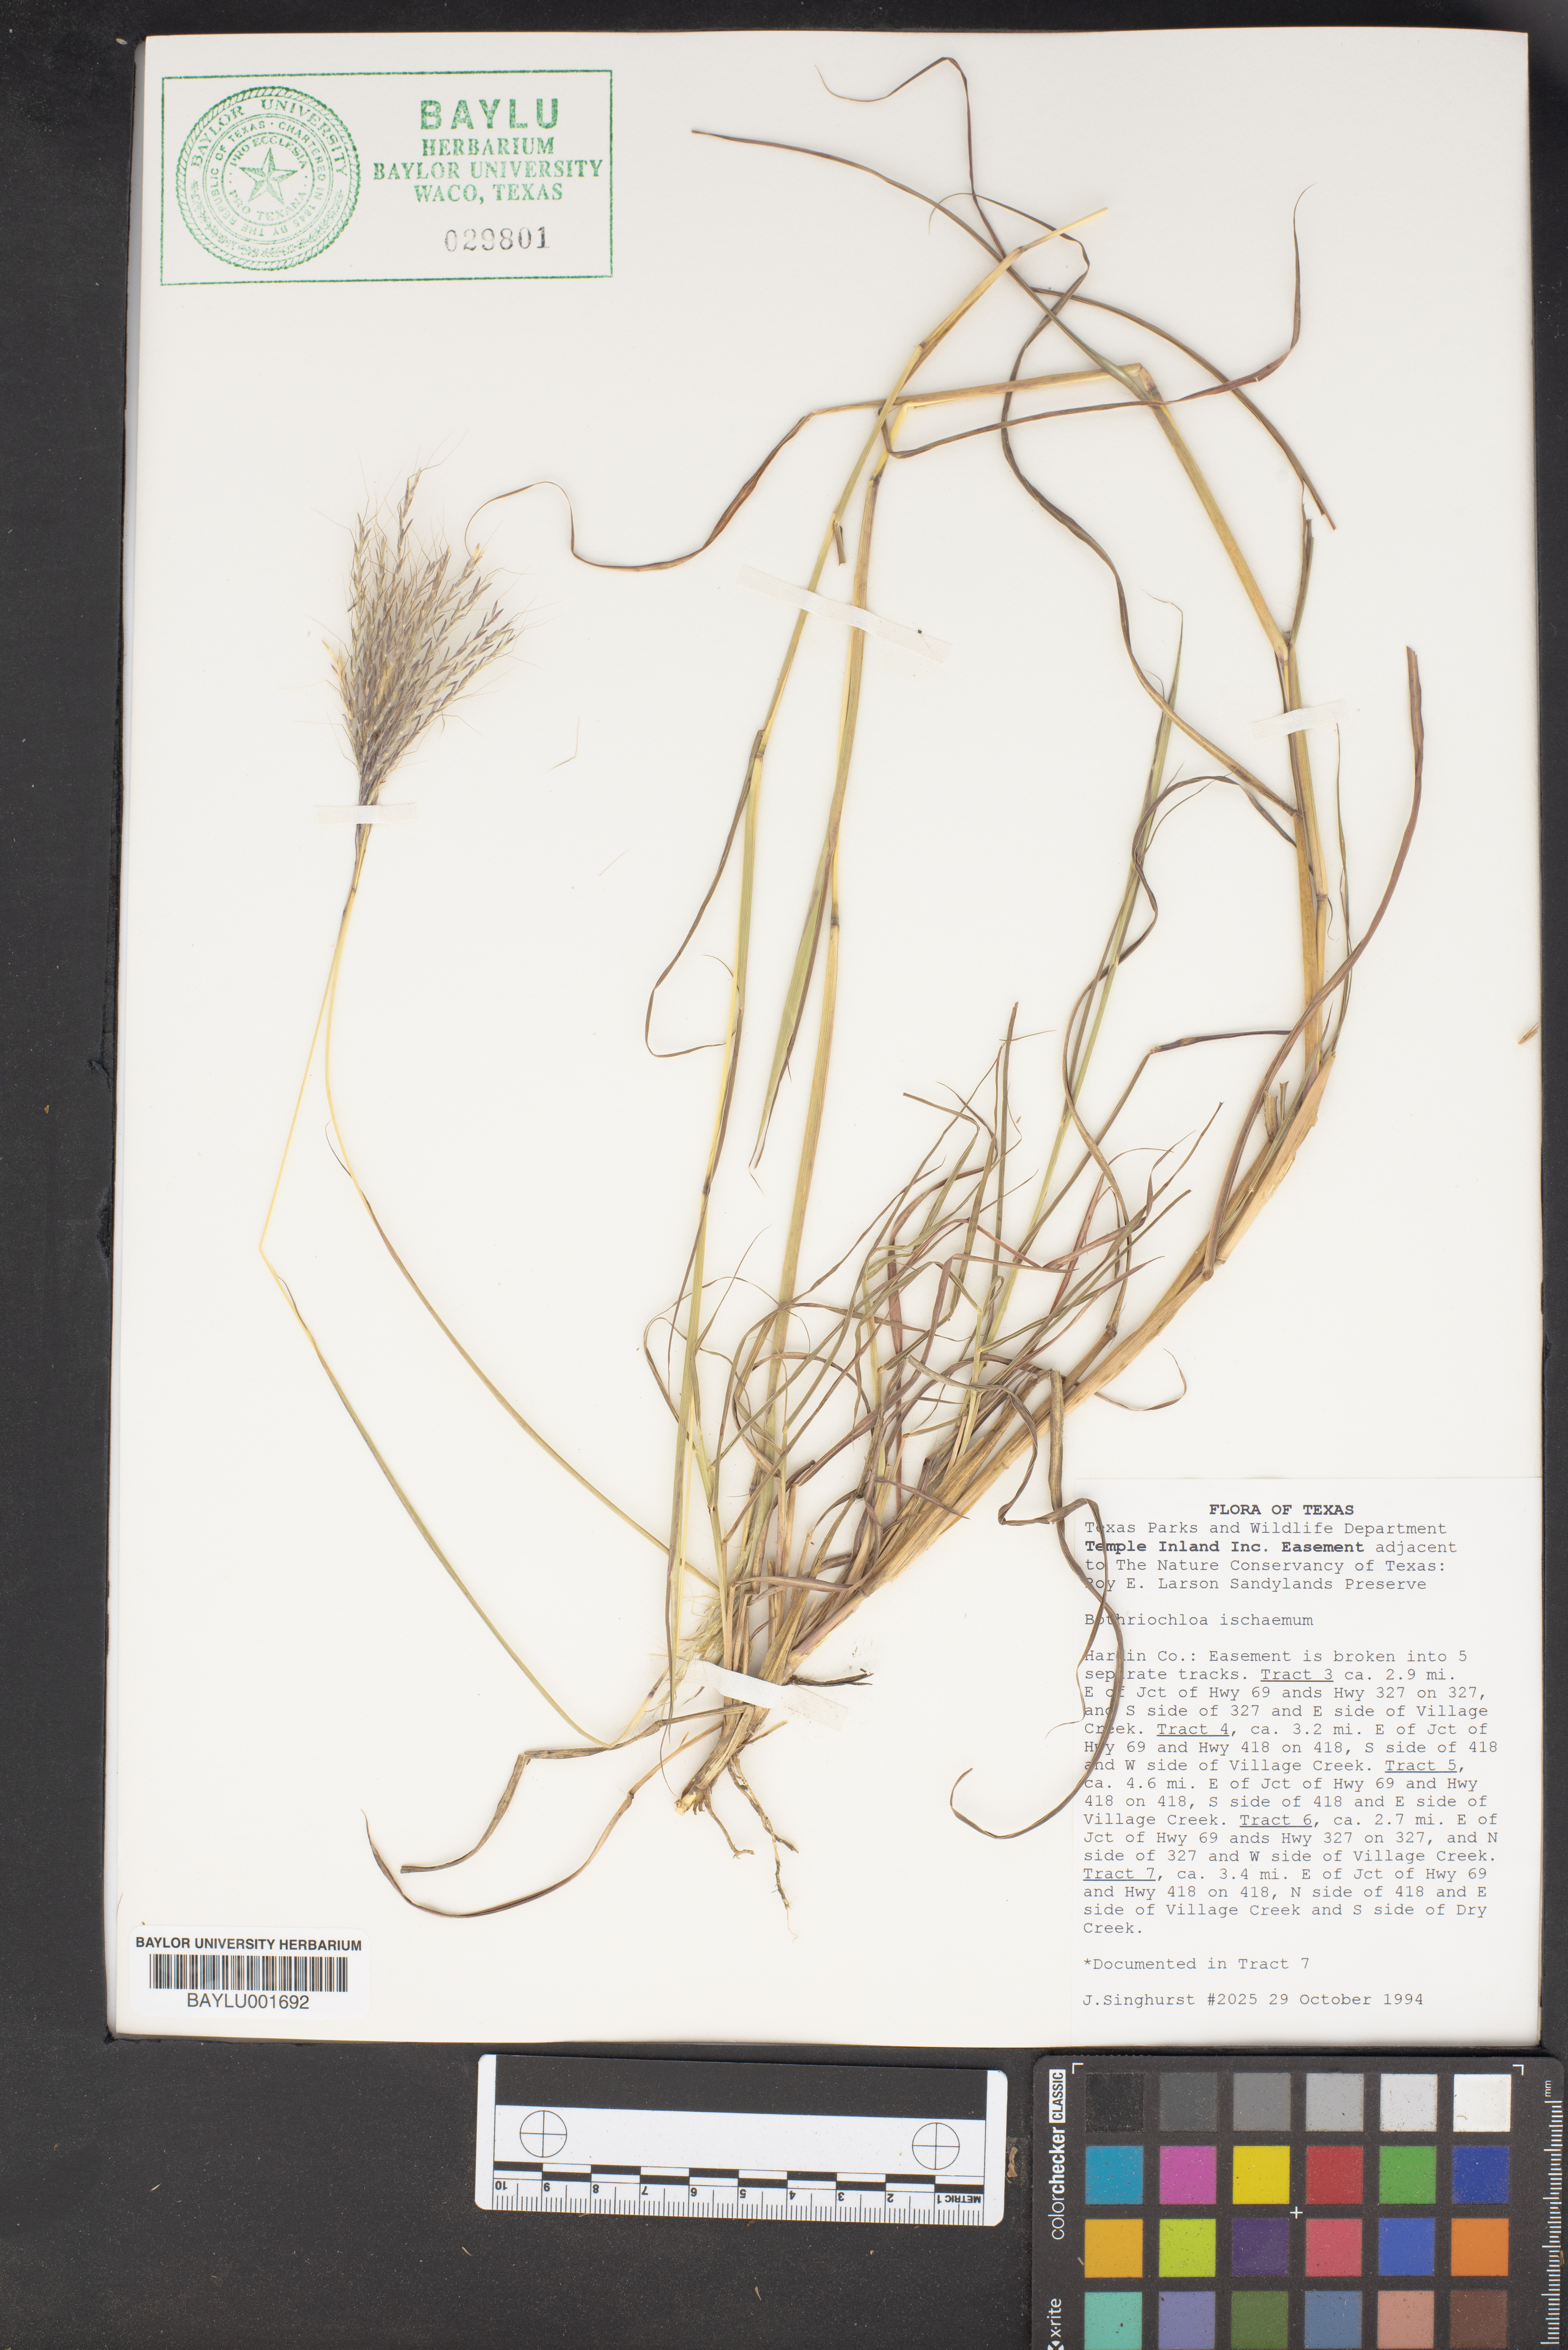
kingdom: Plantae
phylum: Tracheophyta
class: Liliopsida
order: Poales
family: Poaceae
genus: Bothriochloa
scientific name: Bothriochloa ischaemum
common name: Yellow bluestem
